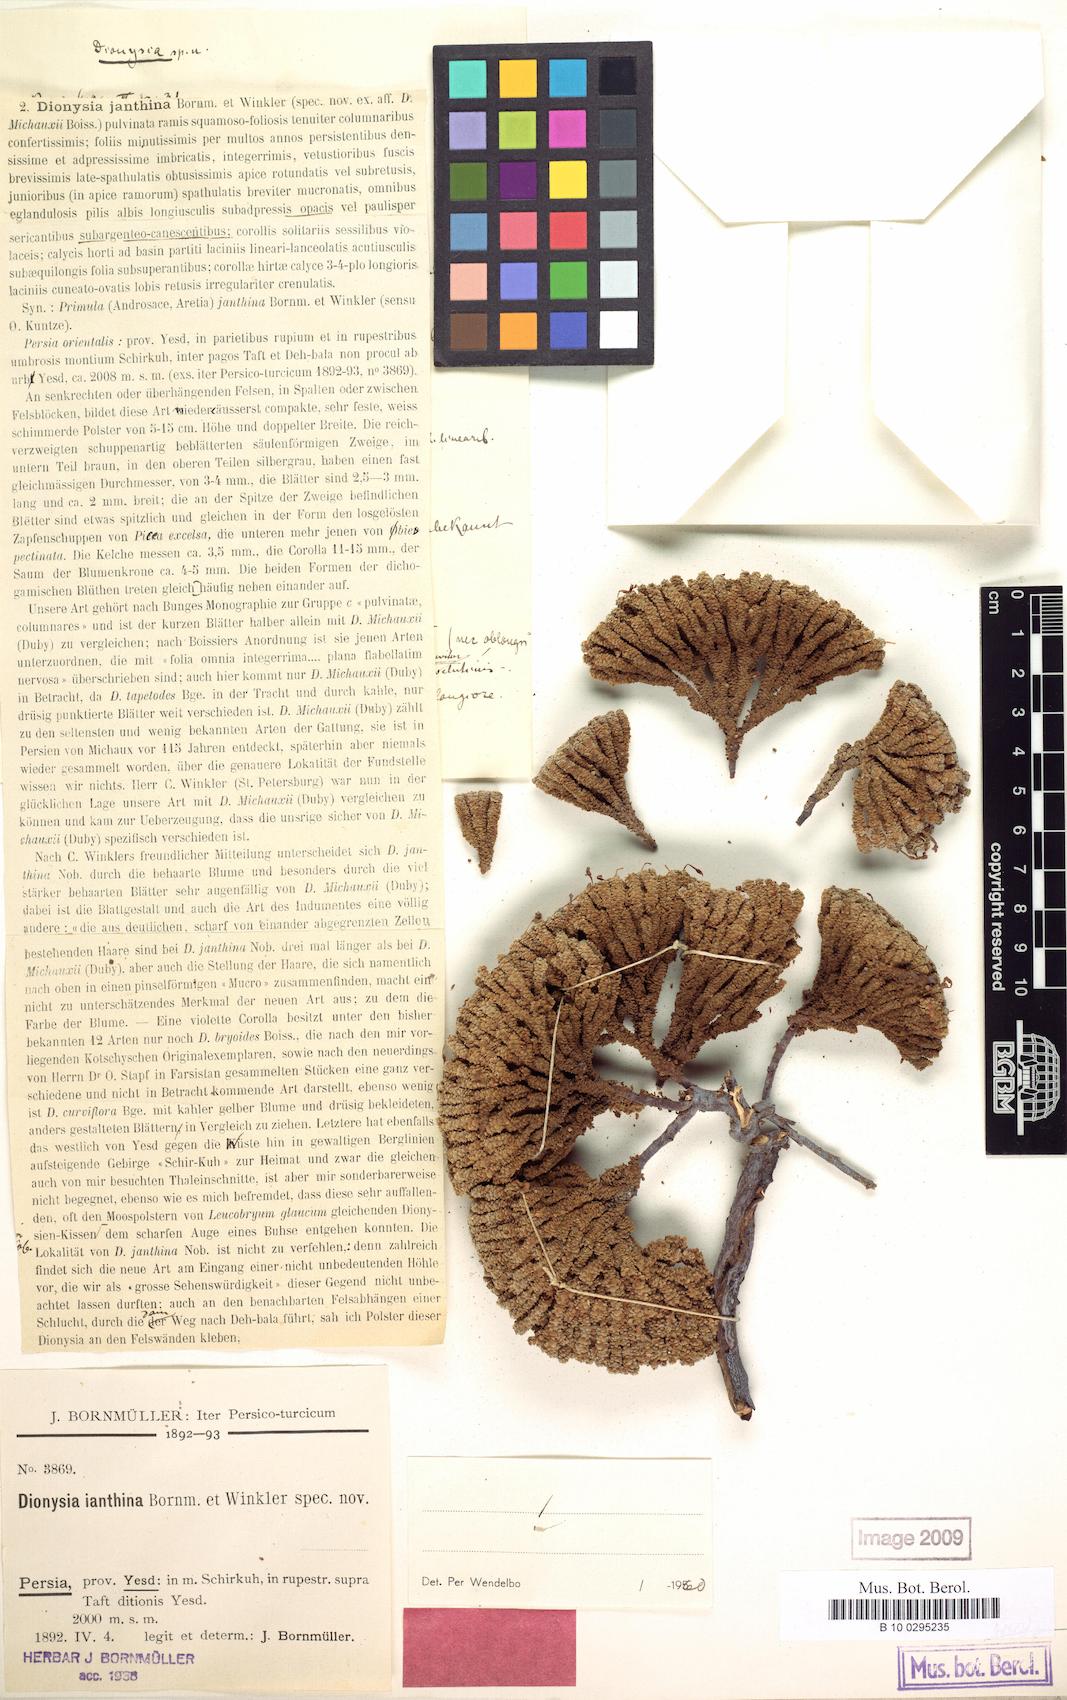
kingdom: Plantae
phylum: Tracheophyta
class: Magnoliopsida
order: Ericales
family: Primulaceae
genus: Dionysia
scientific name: Dionysia janthina
